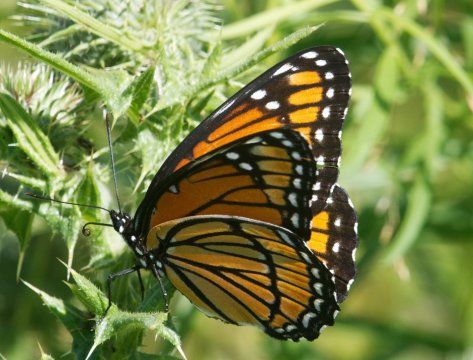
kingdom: Animalia
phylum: Arthropoda
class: Insecta
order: Lepidoptera
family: Nymphalidae
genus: Limenitis
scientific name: Limenitis archippus
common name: Viceroy
